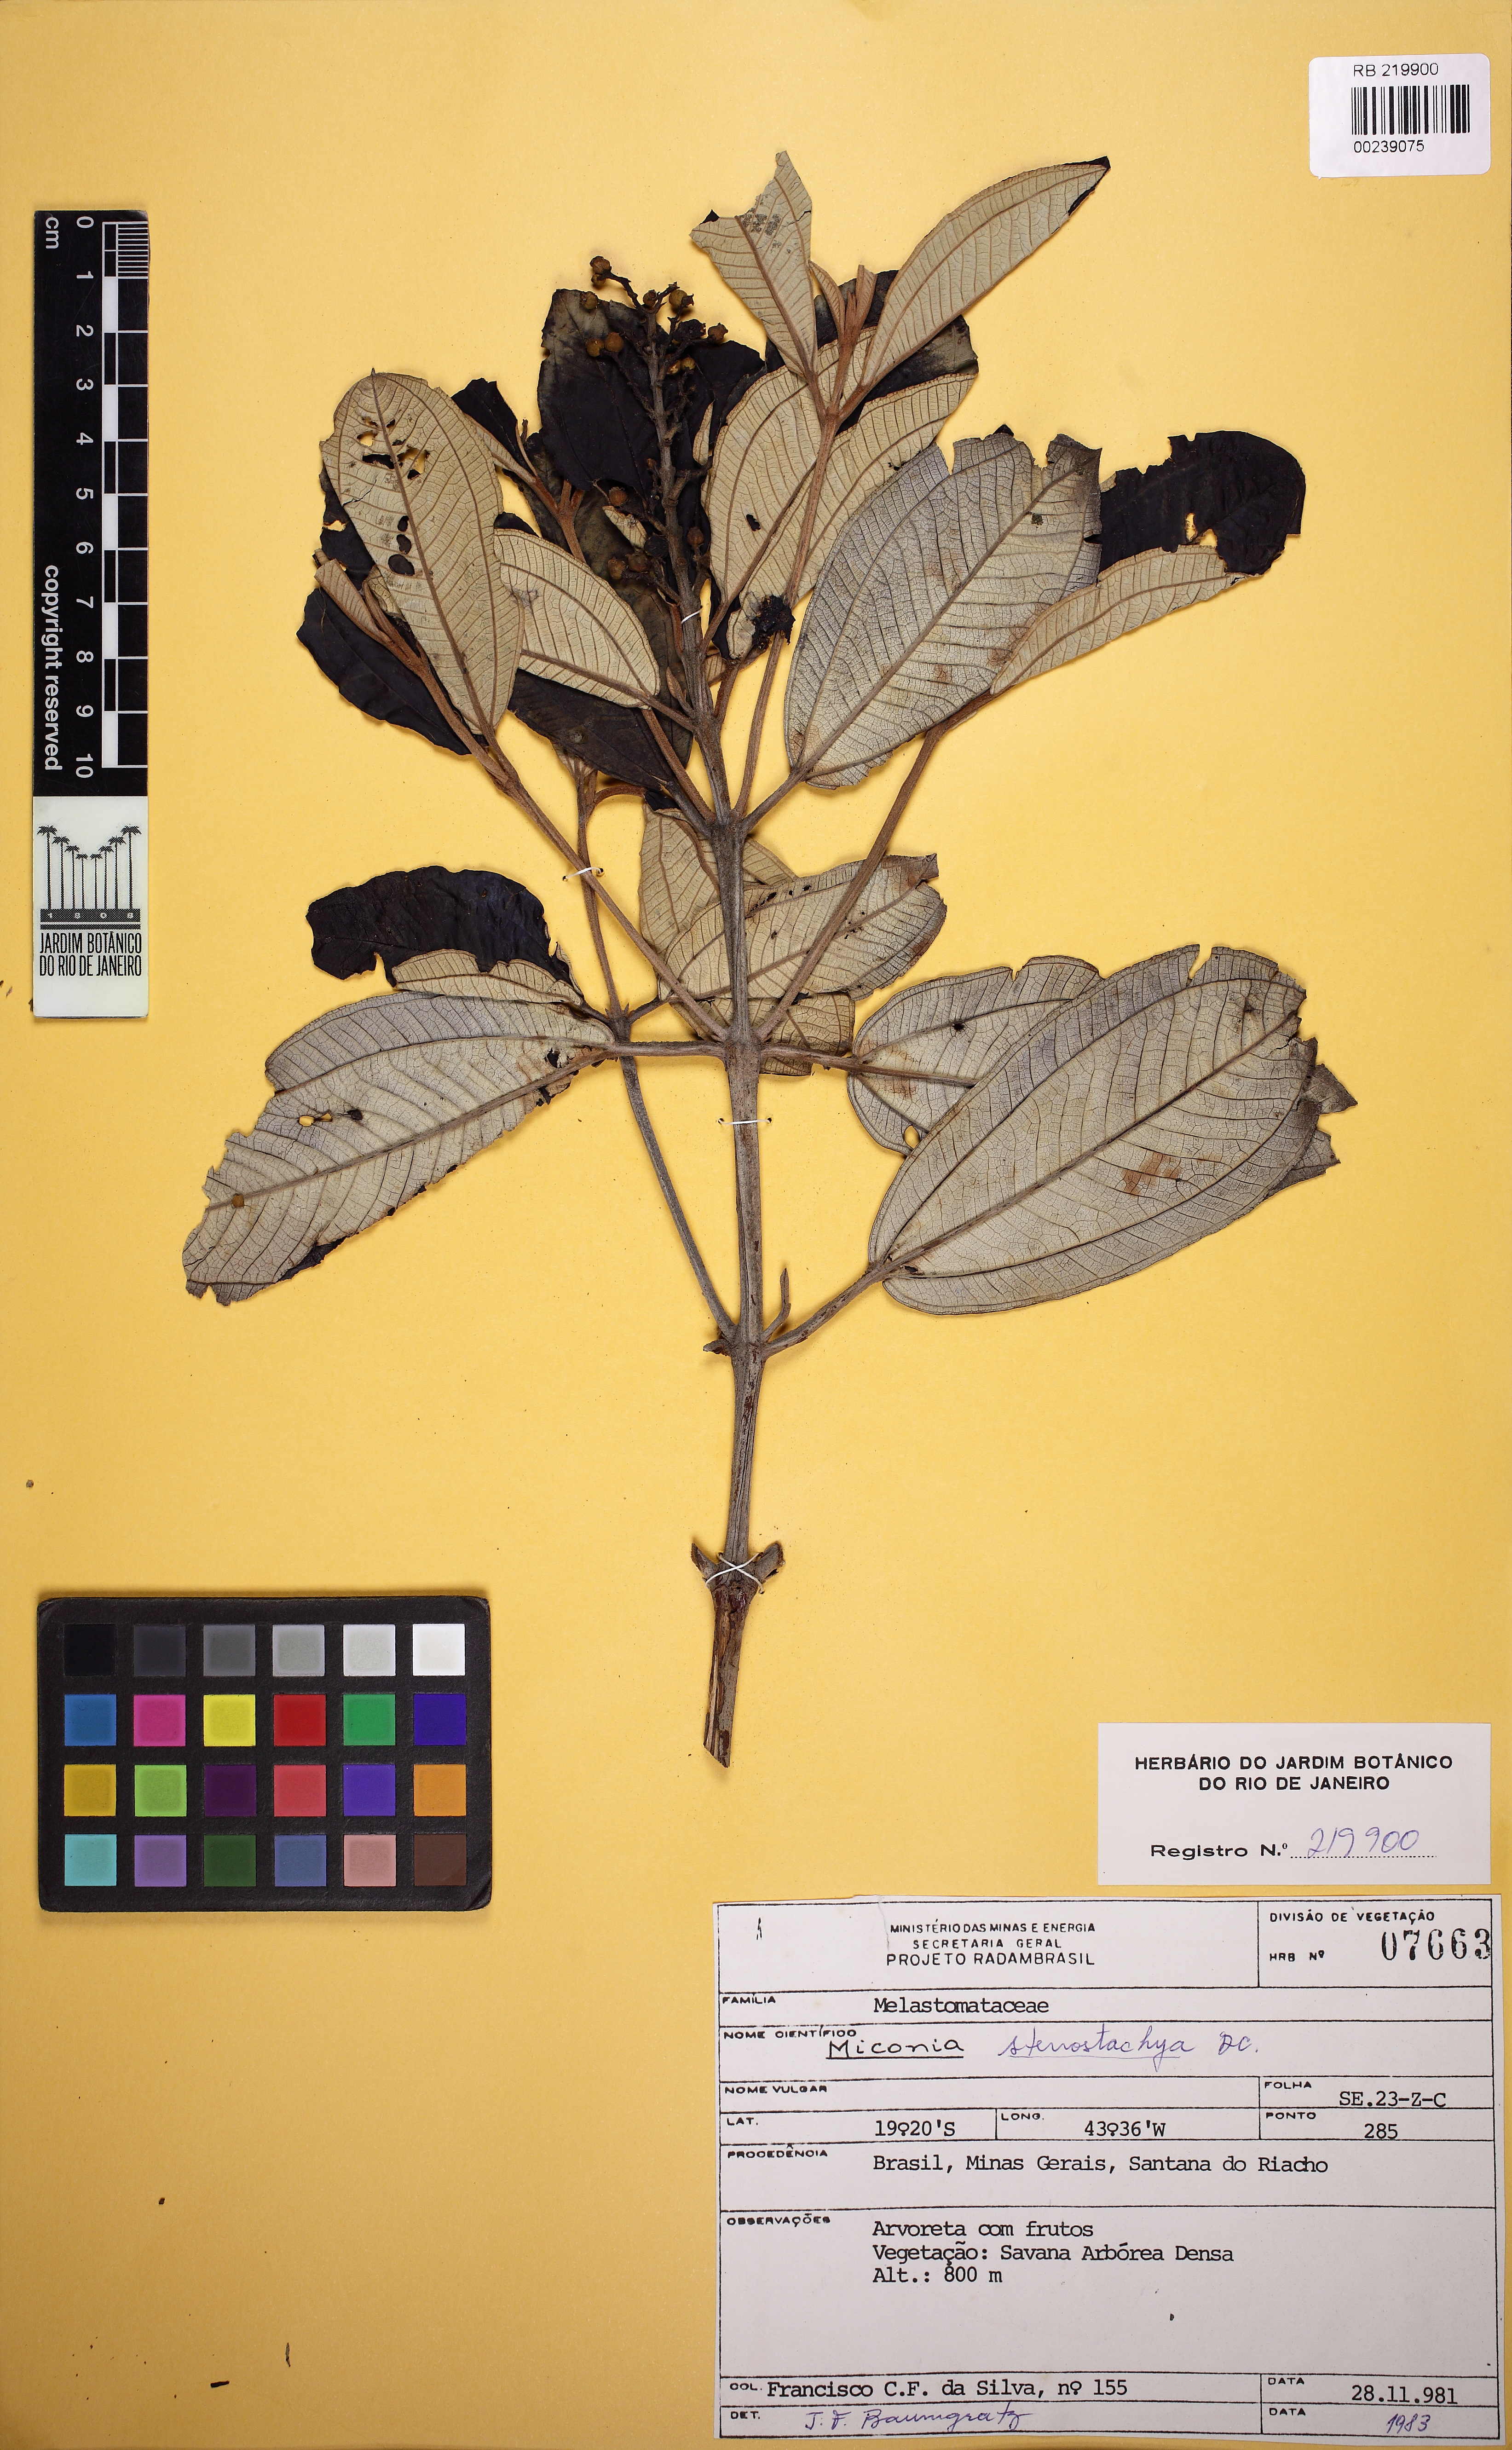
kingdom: Plantae
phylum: Tracheophyta
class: Magnoliopsida
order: Myrtales
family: Melastomataceae
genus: Miconia
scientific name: Miconia stenostachya
